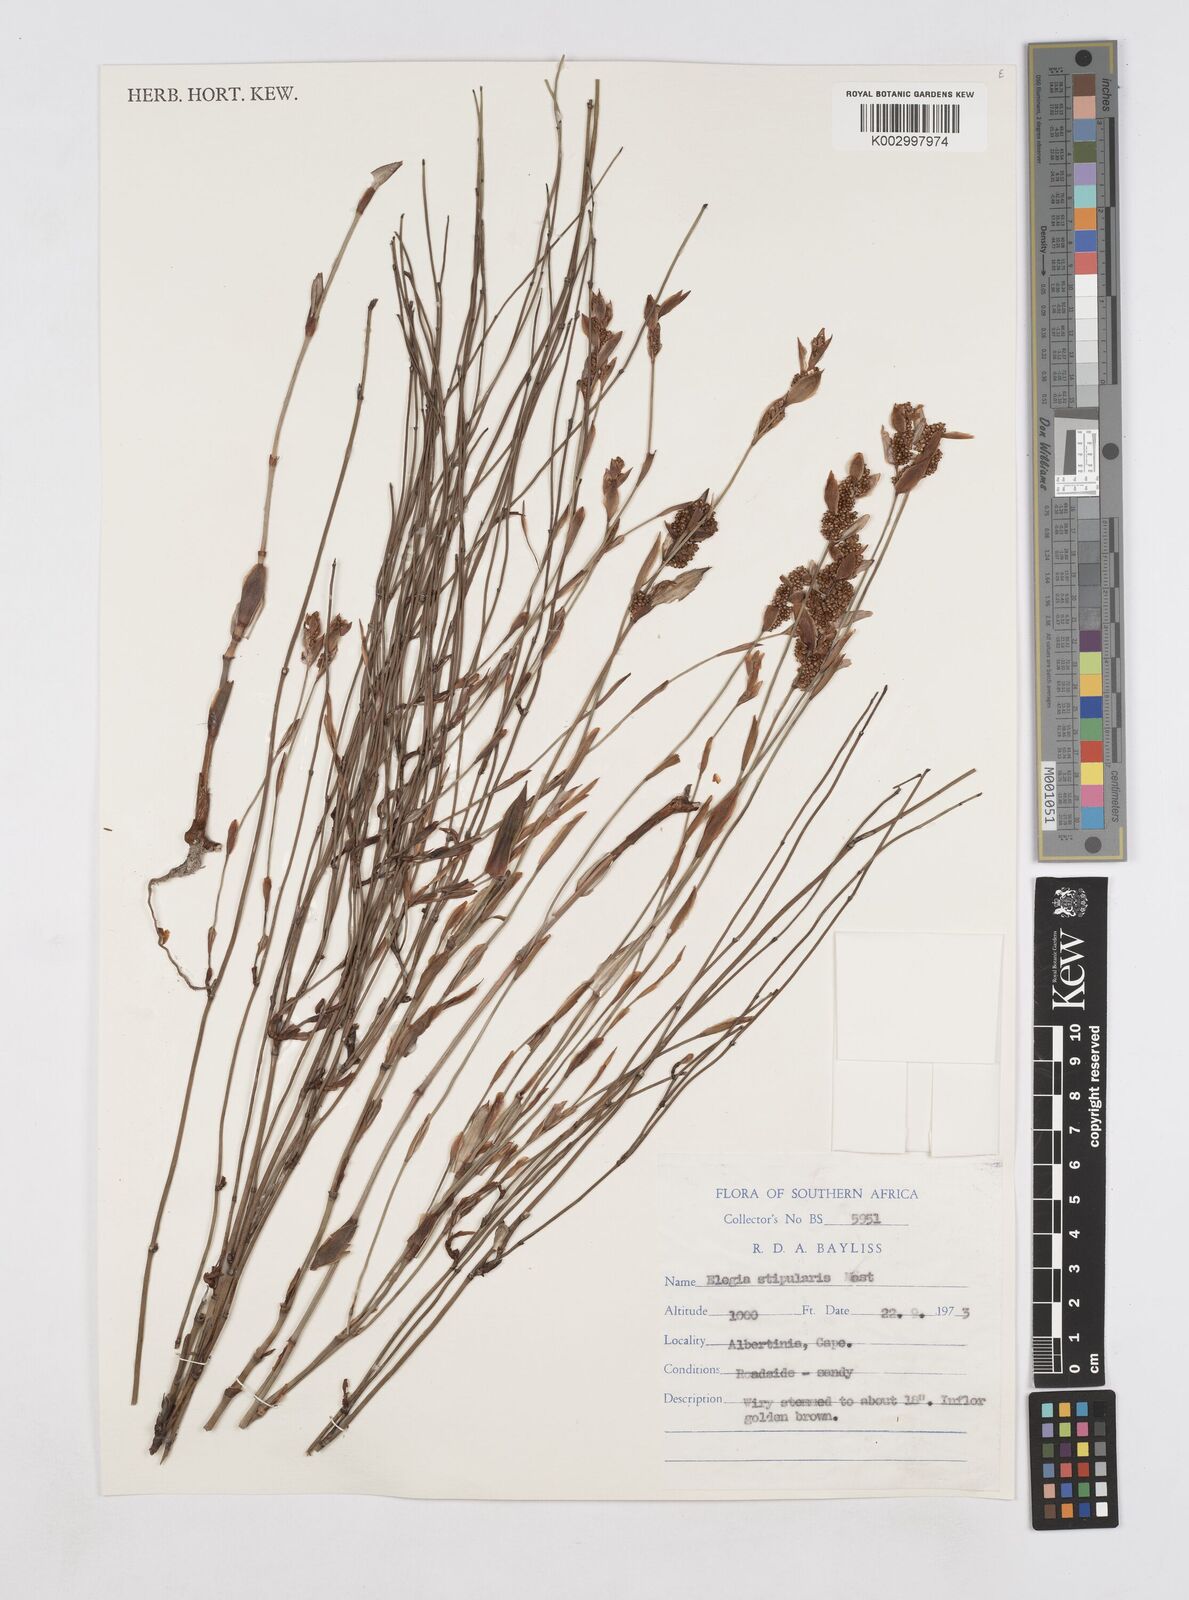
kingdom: Plantae
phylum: Tracheophyta
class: Liliopsida
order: Poales
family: Restionaceae
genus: Elegia
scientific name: Elegia stipularis
